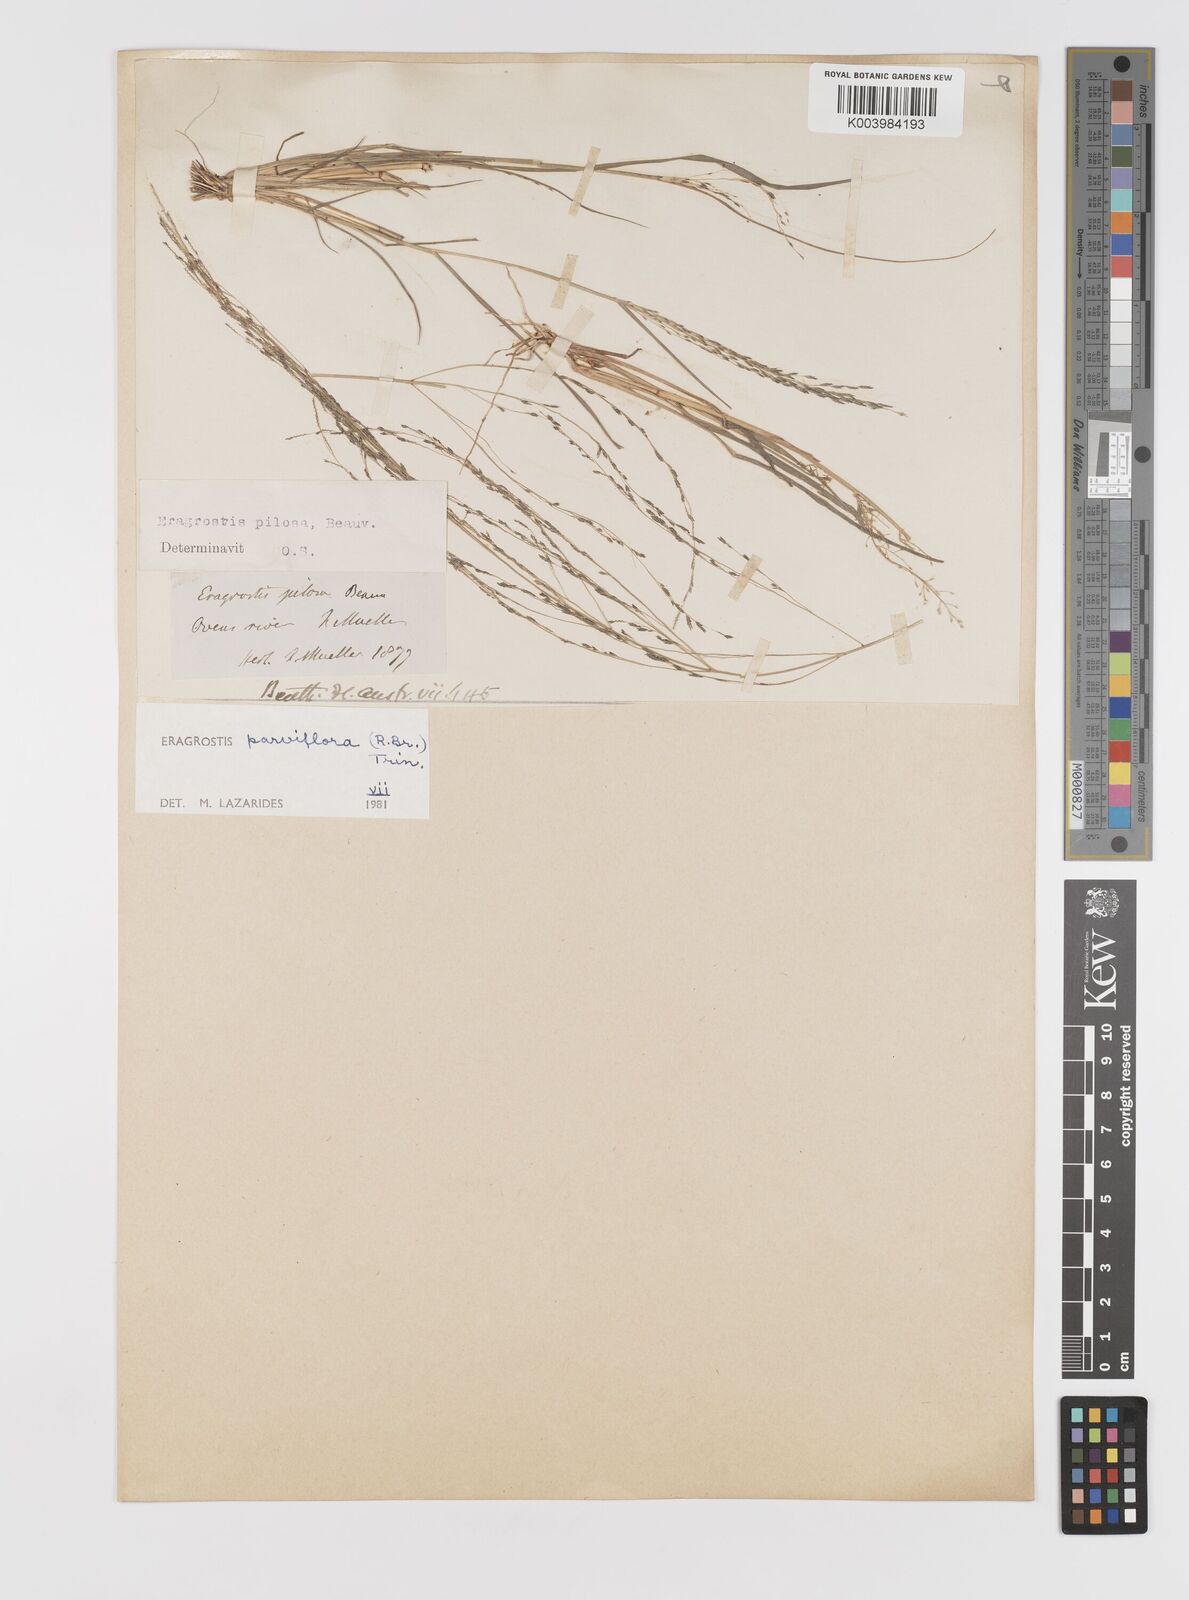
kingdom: Plantae
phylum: Tracheophyta
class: Liliopsida
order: Poales
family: Poaceae
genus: Eragrostis
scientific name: Eragrostis parviflora
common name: Weeping love-grass
